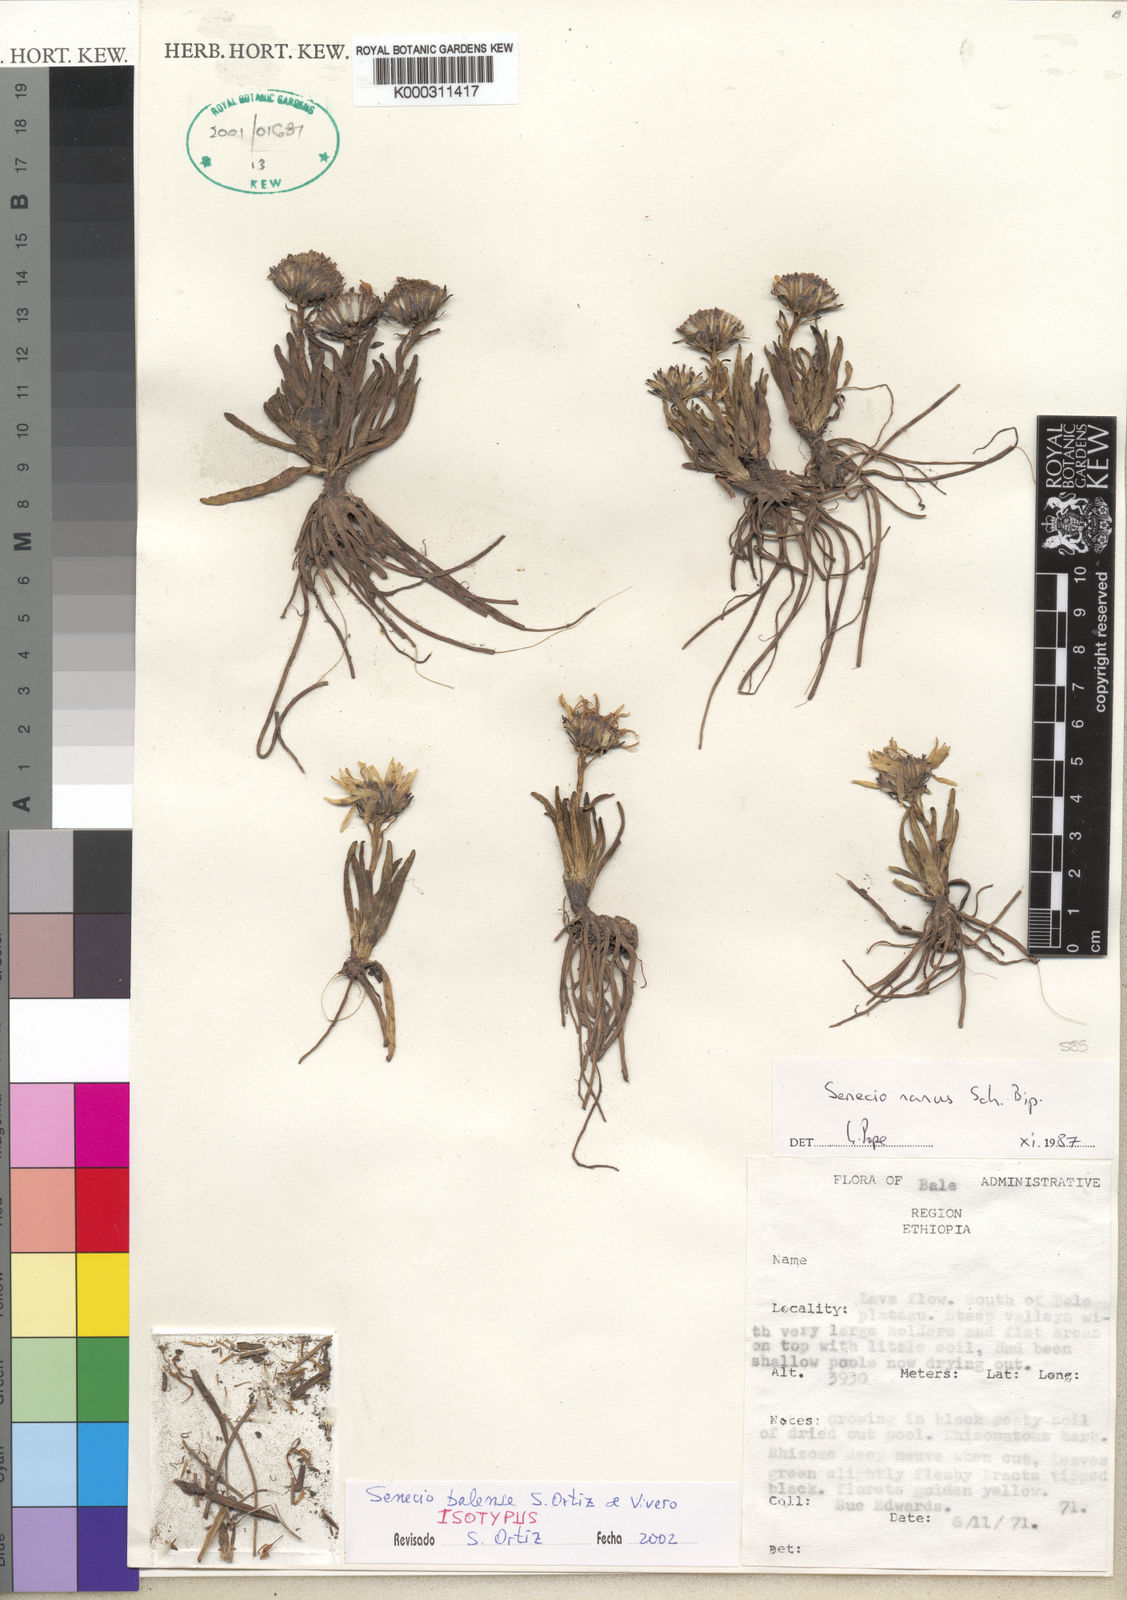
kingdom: Plantae
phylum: Tracheophyta
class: Magnoliopsida
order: Asterales
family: Asteraceae
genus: Senecio
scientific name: Senecio
